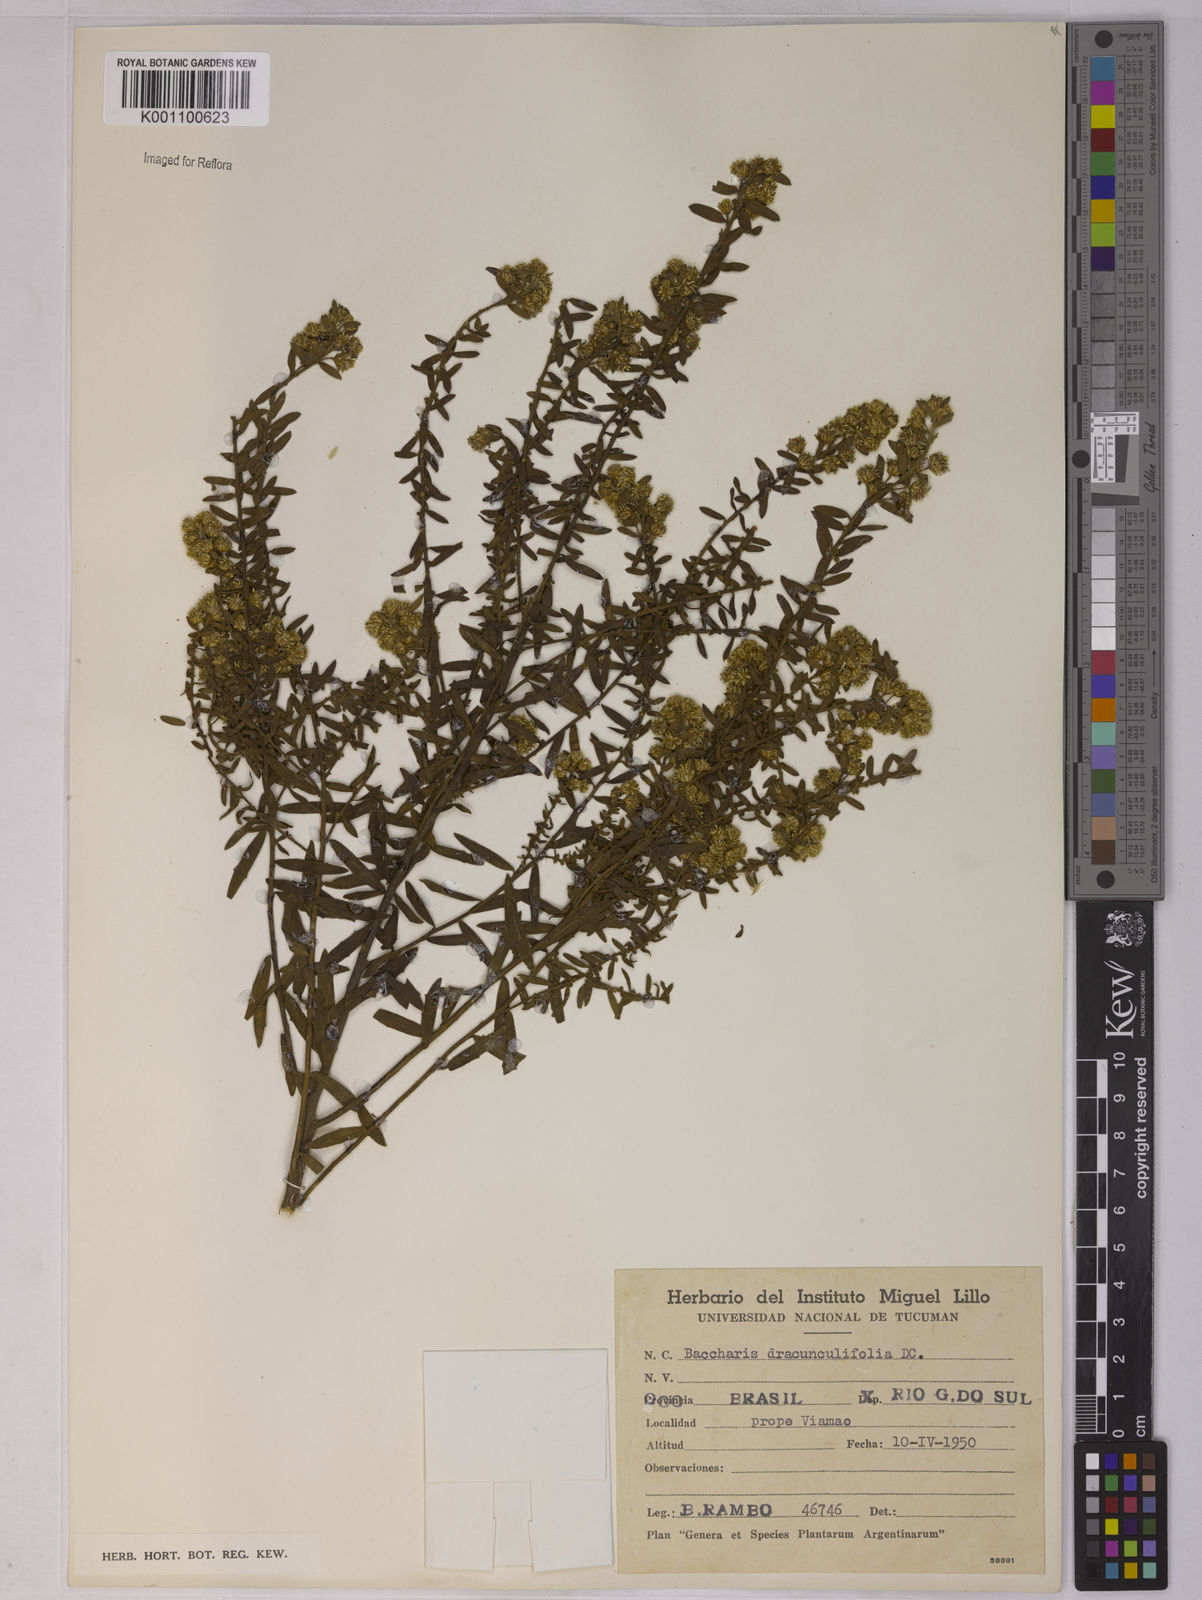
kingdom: Plantae
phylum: Tracheophyta
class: Magnoliopsida
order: Asterales
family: Asteraceae
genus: Baccharis
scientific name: Baccharis dracunculifolia
